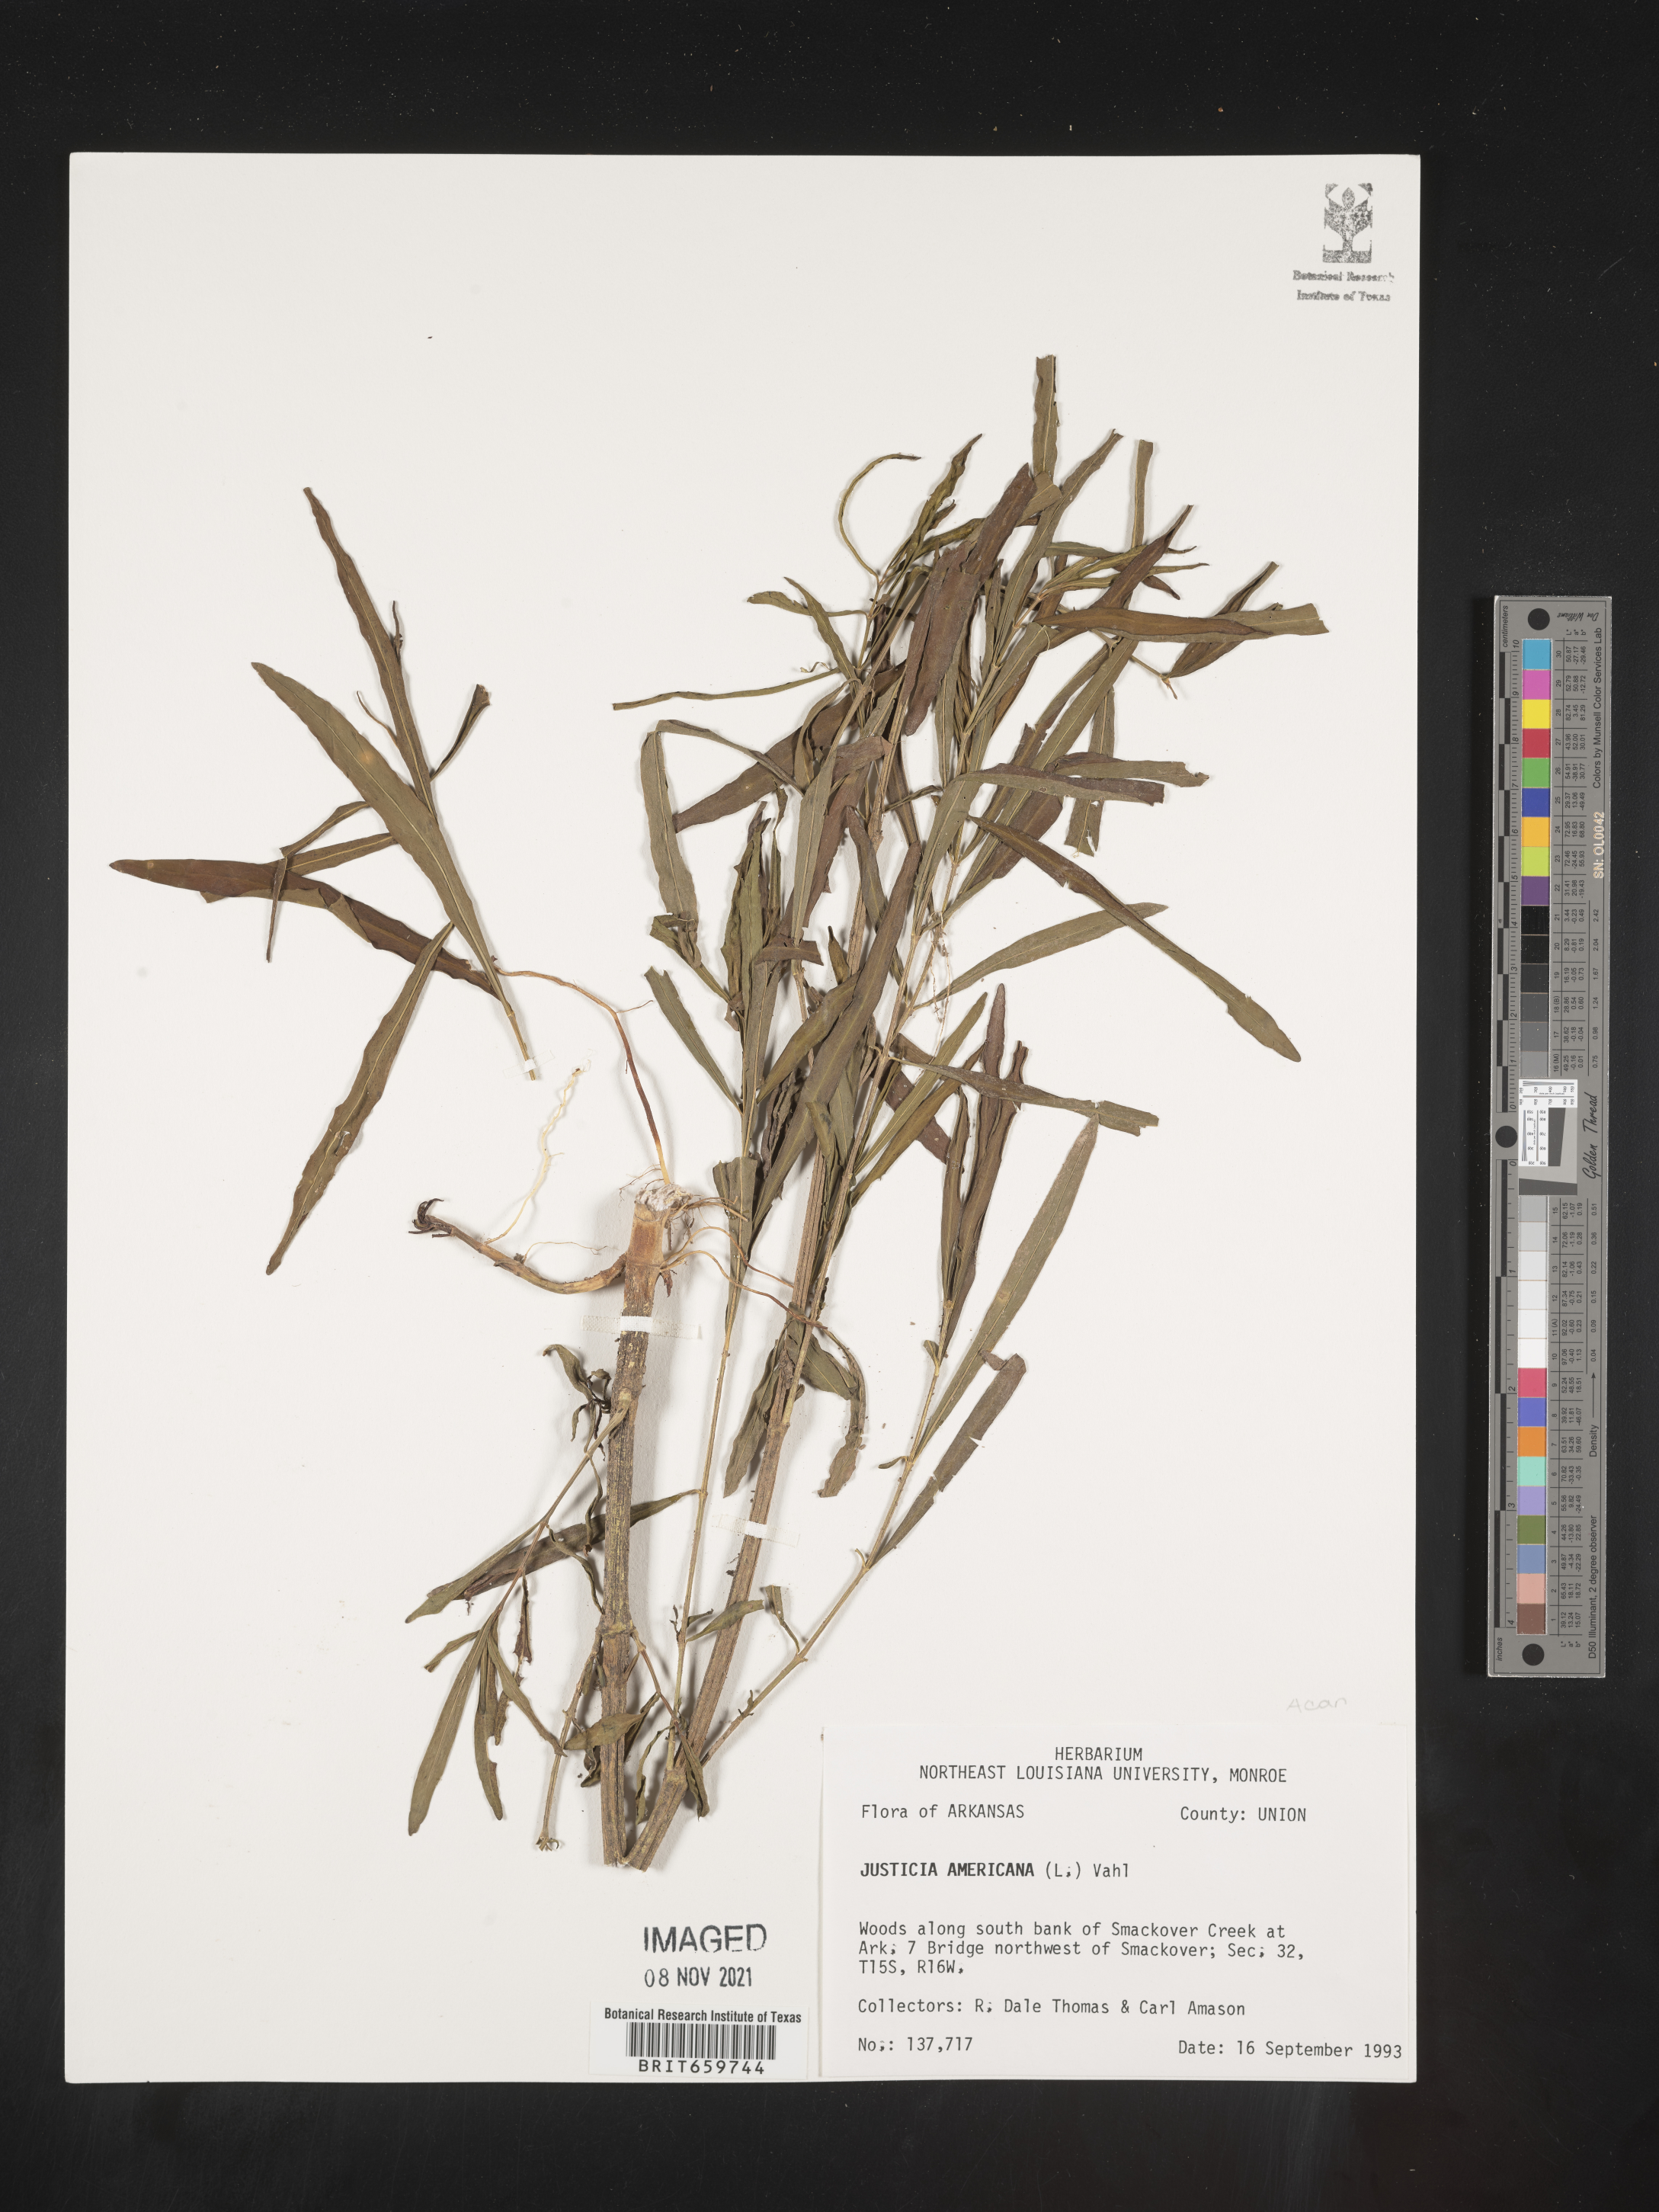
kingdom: Plantae
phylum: Tracheophyta
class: Magnoliopsida
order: Lamiales
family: Acanthaceae
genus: Dianthera
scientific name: Dianthera americana
